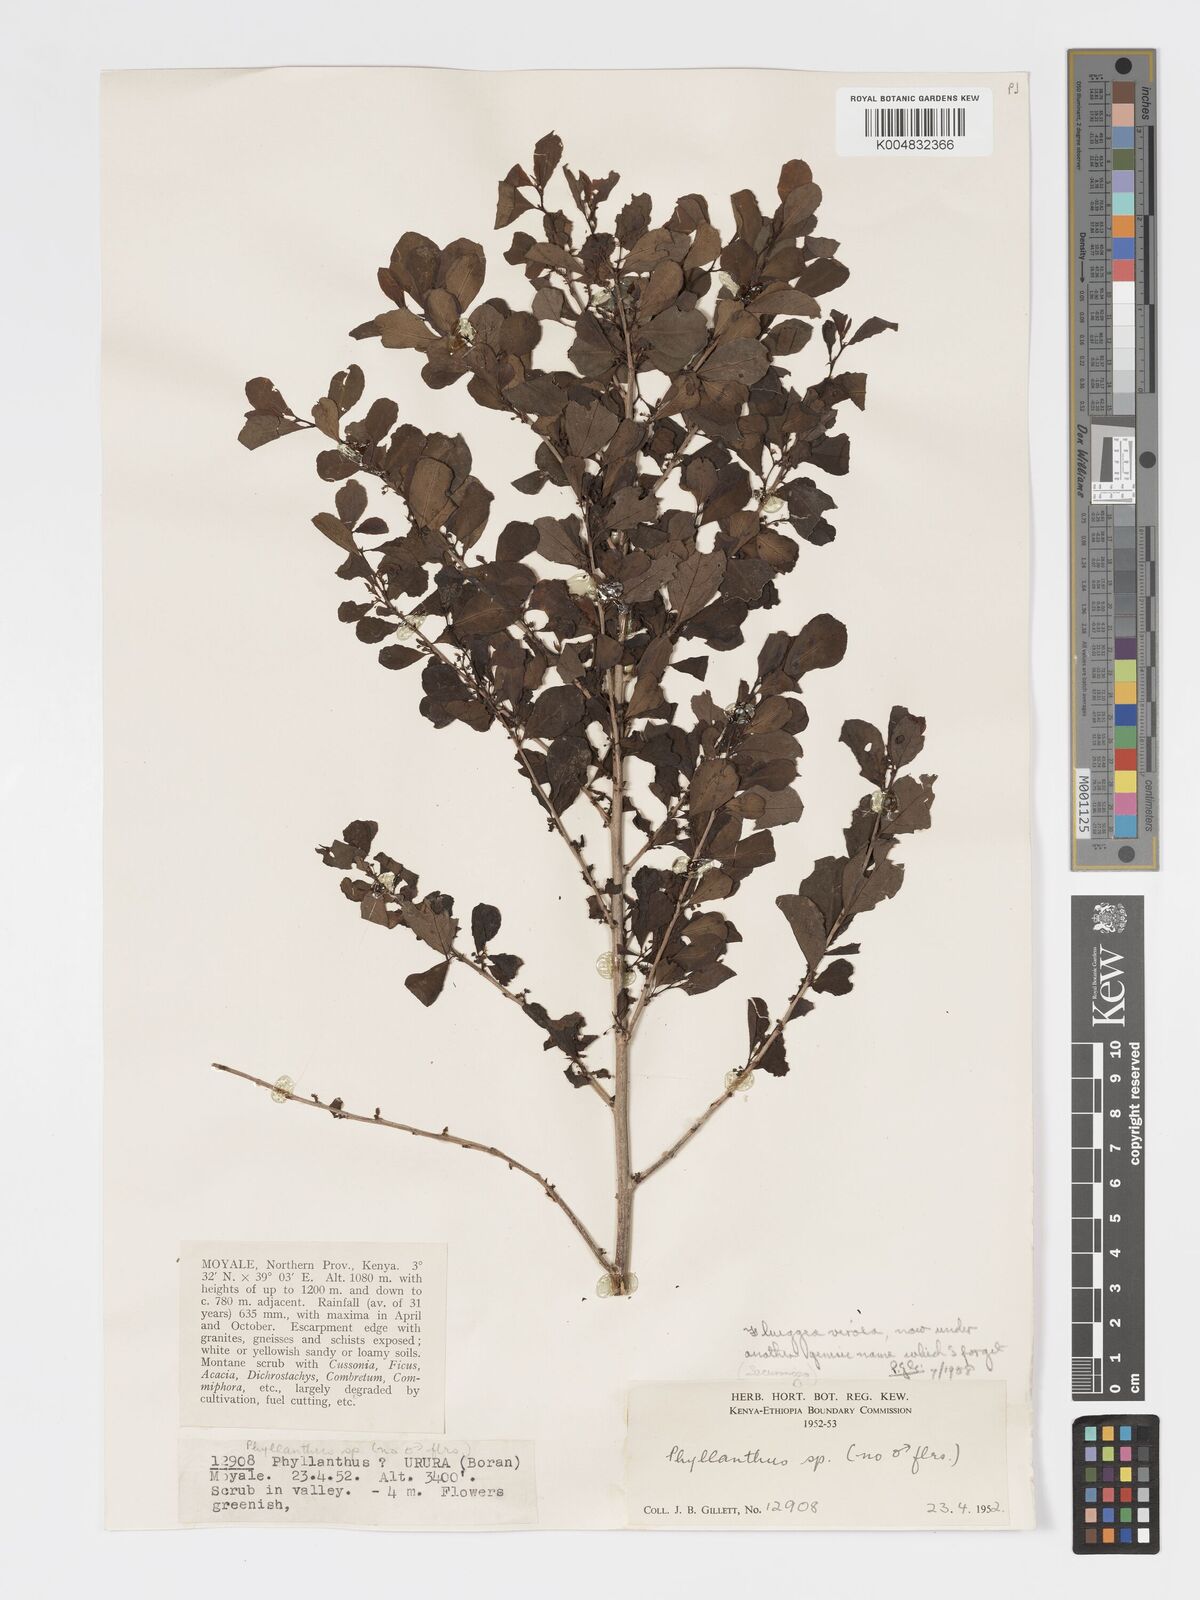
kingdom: Plantae
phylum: Tracheophyta
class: Magnoliopsida
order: Malpighiales
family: Phyllanthaceae
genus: Flueggea
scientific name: Flueggea virosa
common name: Common bushweed
